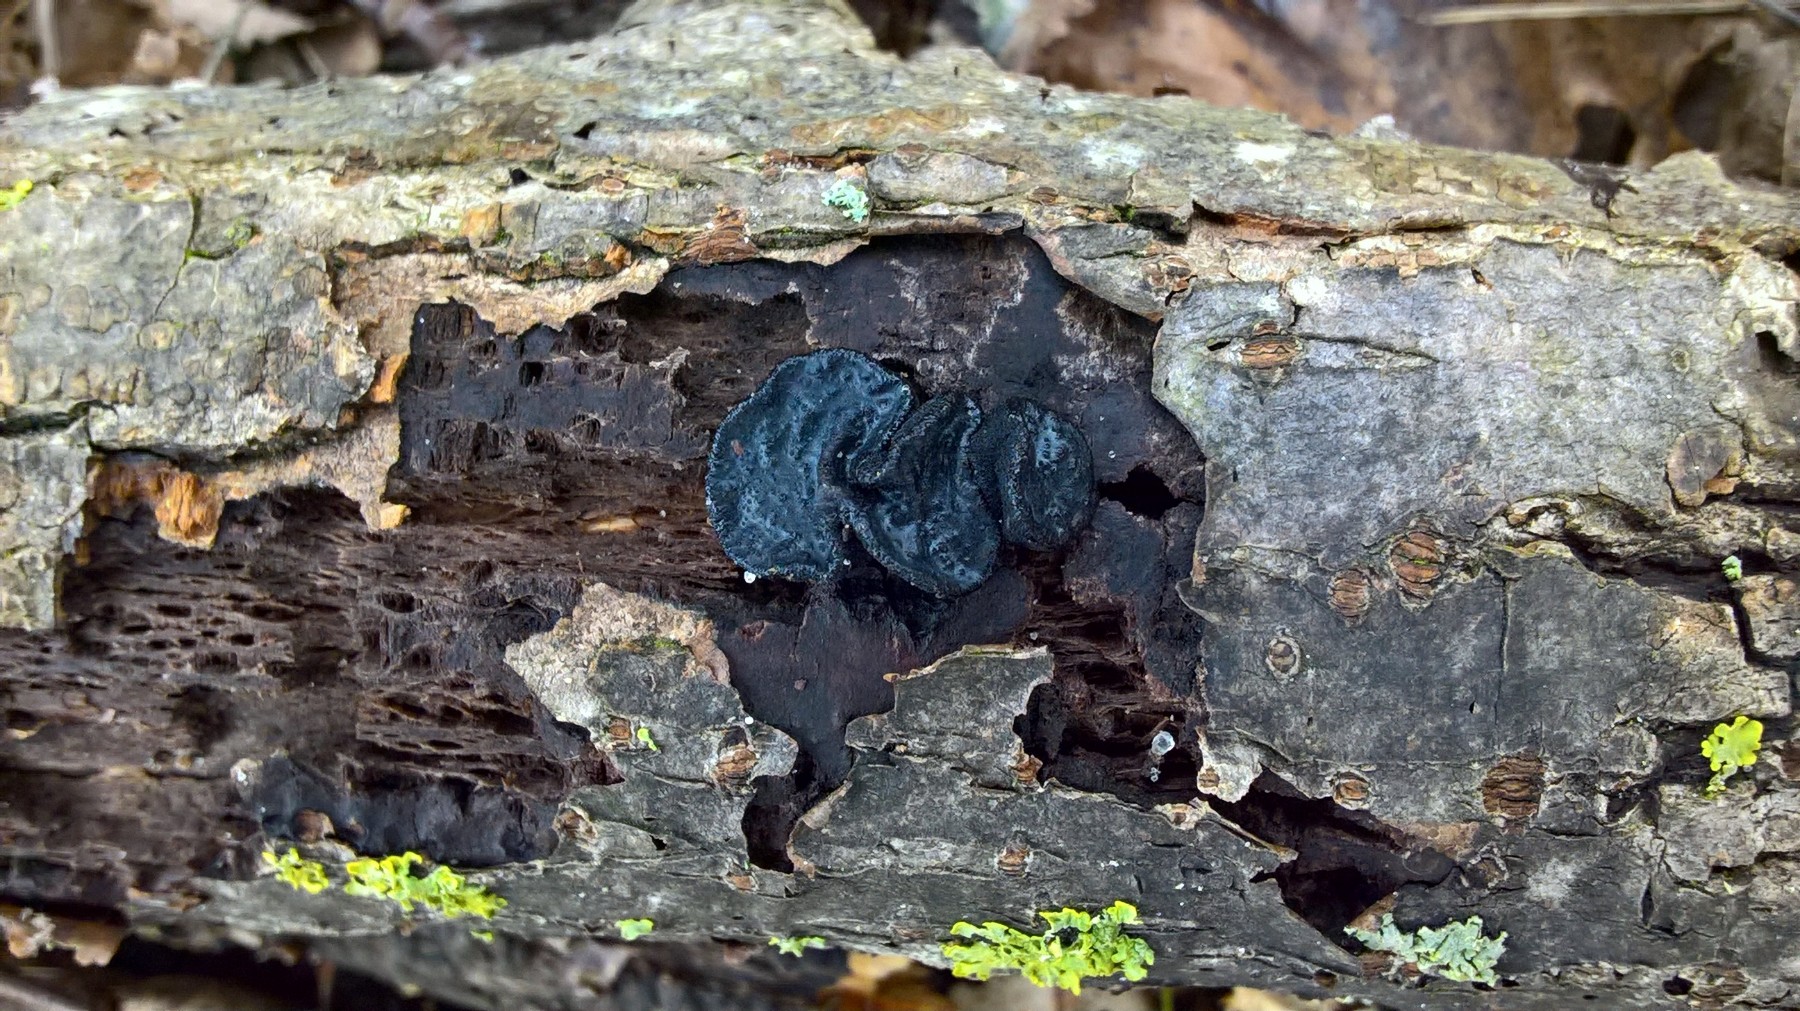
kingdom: Fungi
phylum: Basidiomycota
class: Agaricomycetes
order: Auriculariales
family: Auriculariaceae
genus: Exidia
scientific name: Exidia glandulosa
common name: ege-bævretop
